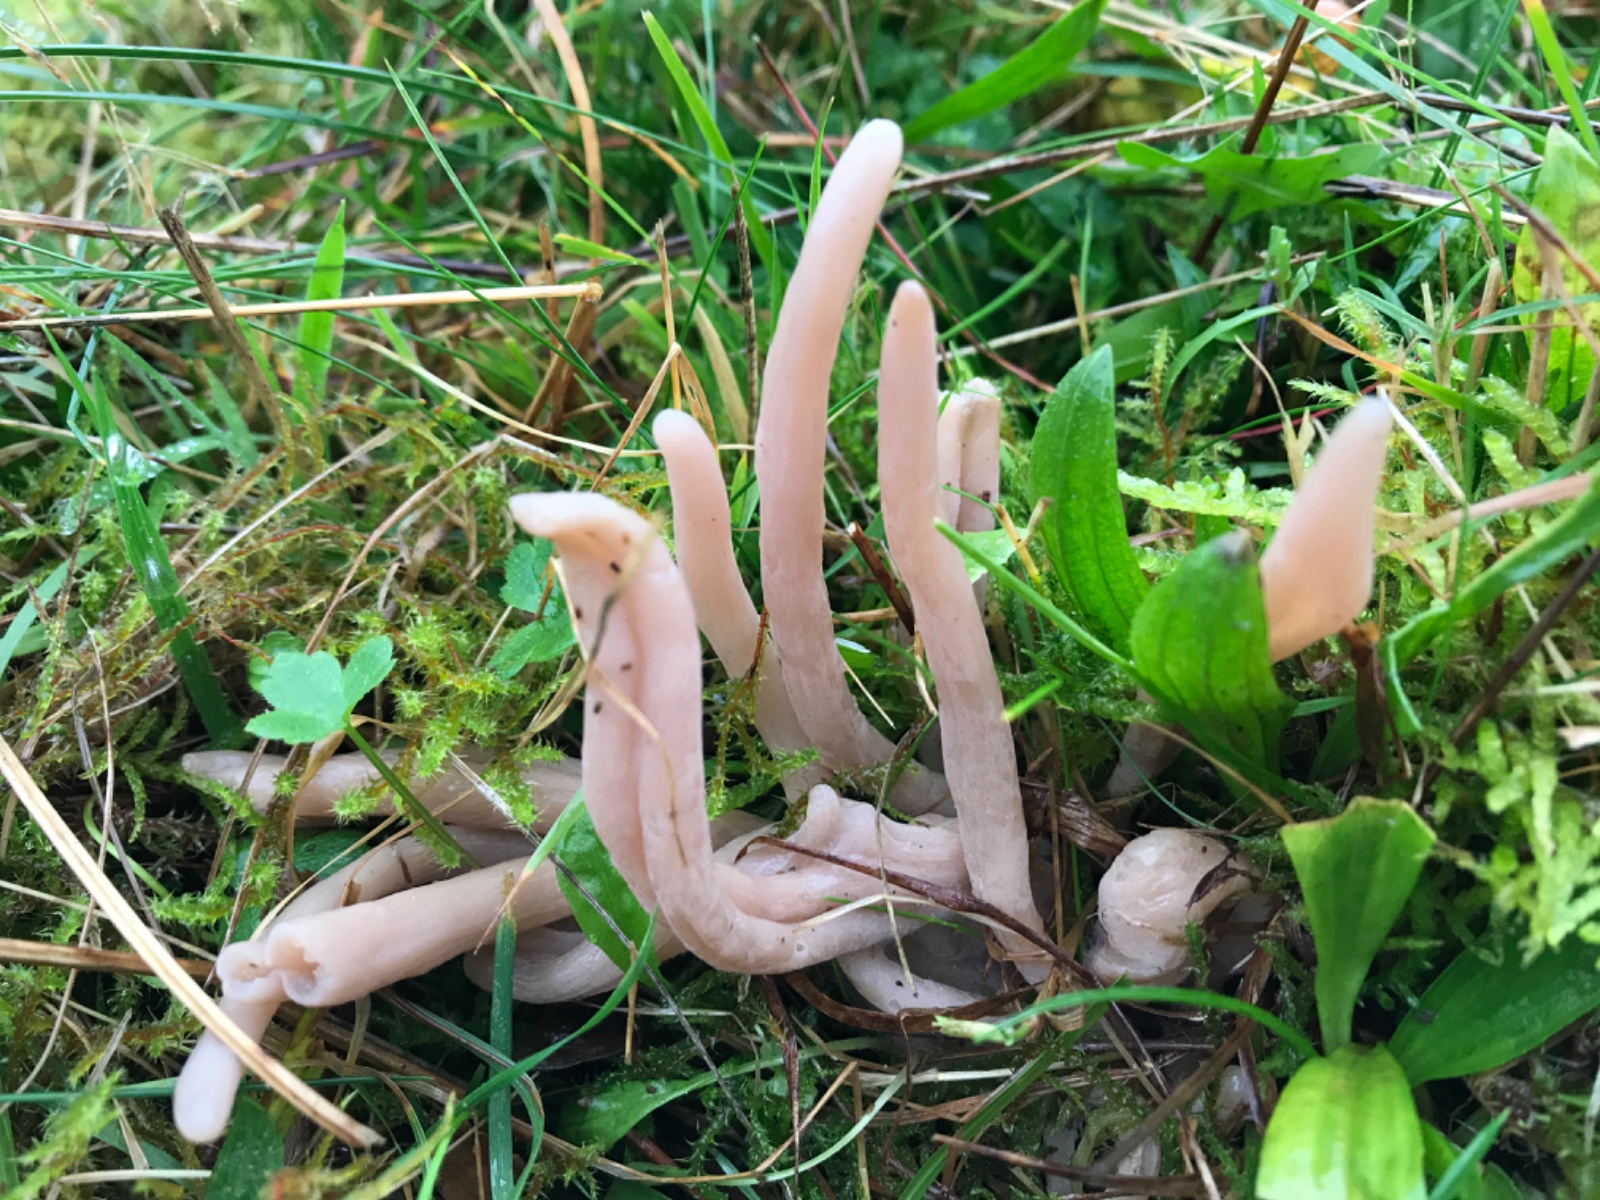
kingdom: Fungi
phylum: Basidiomycota
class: Agaricomycetes
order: Agaricales
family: Clavariaceae
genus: Clavaria
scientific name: Clavaria fumosa
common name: røggrå køllesvamp
